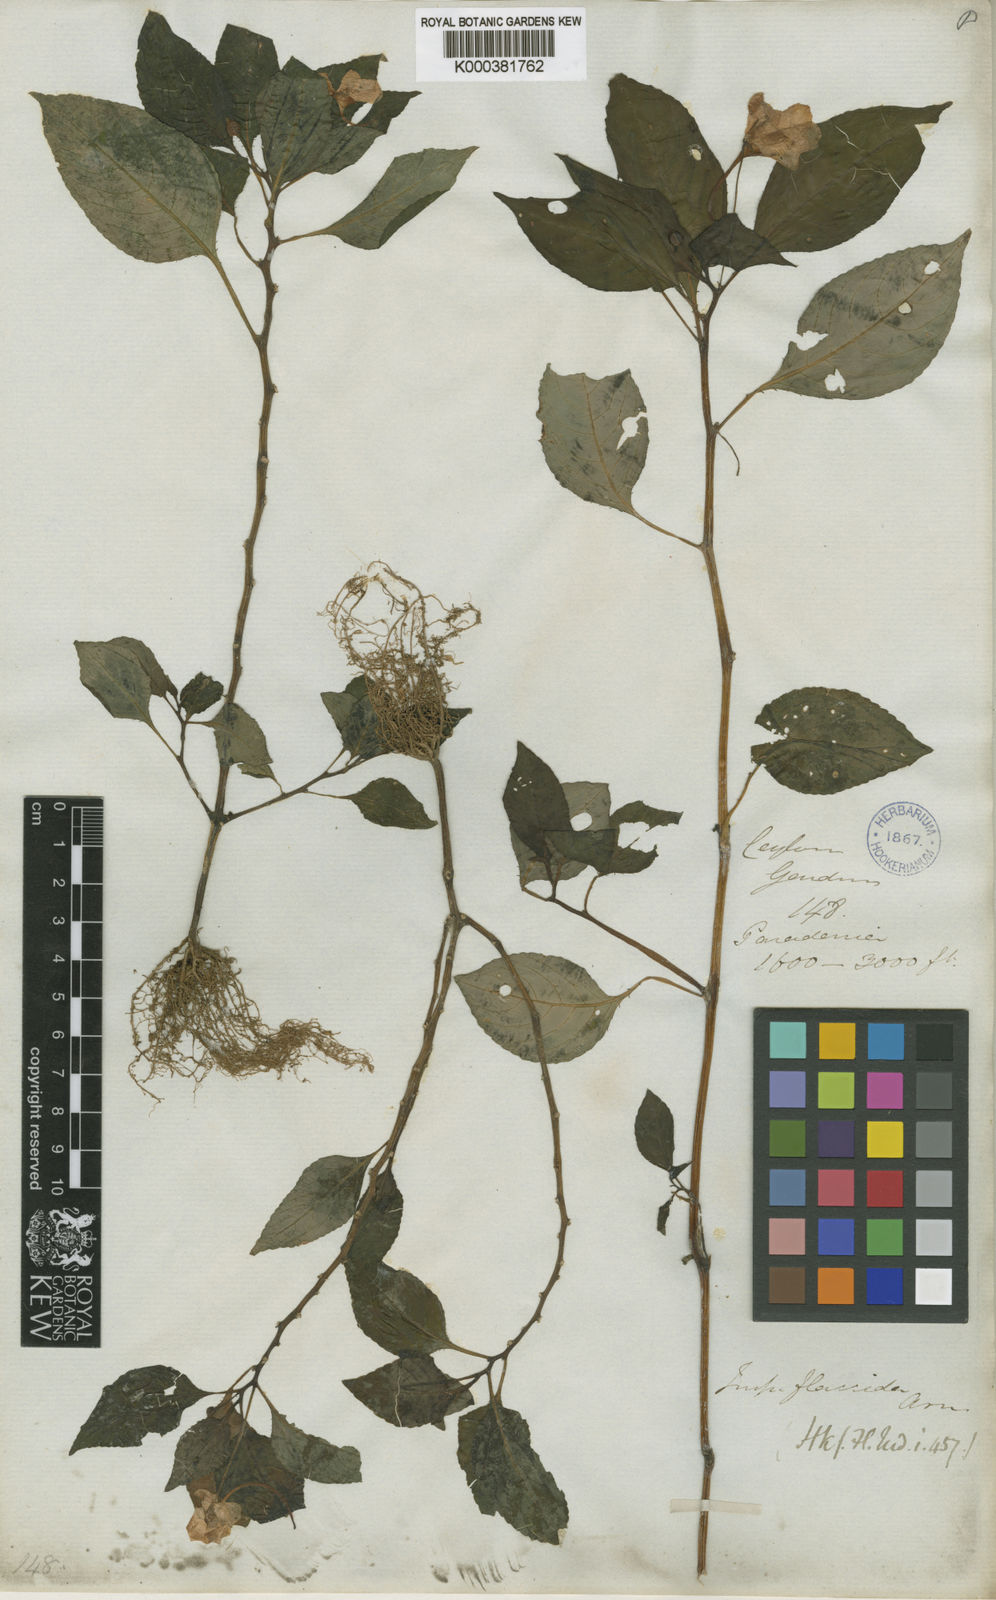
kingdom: Plantae
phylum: Tracheophyta
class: Magnoliopsida
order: Ericales
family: Balsaminaceae
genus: Impatiens
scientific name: Impatiens flaccida
